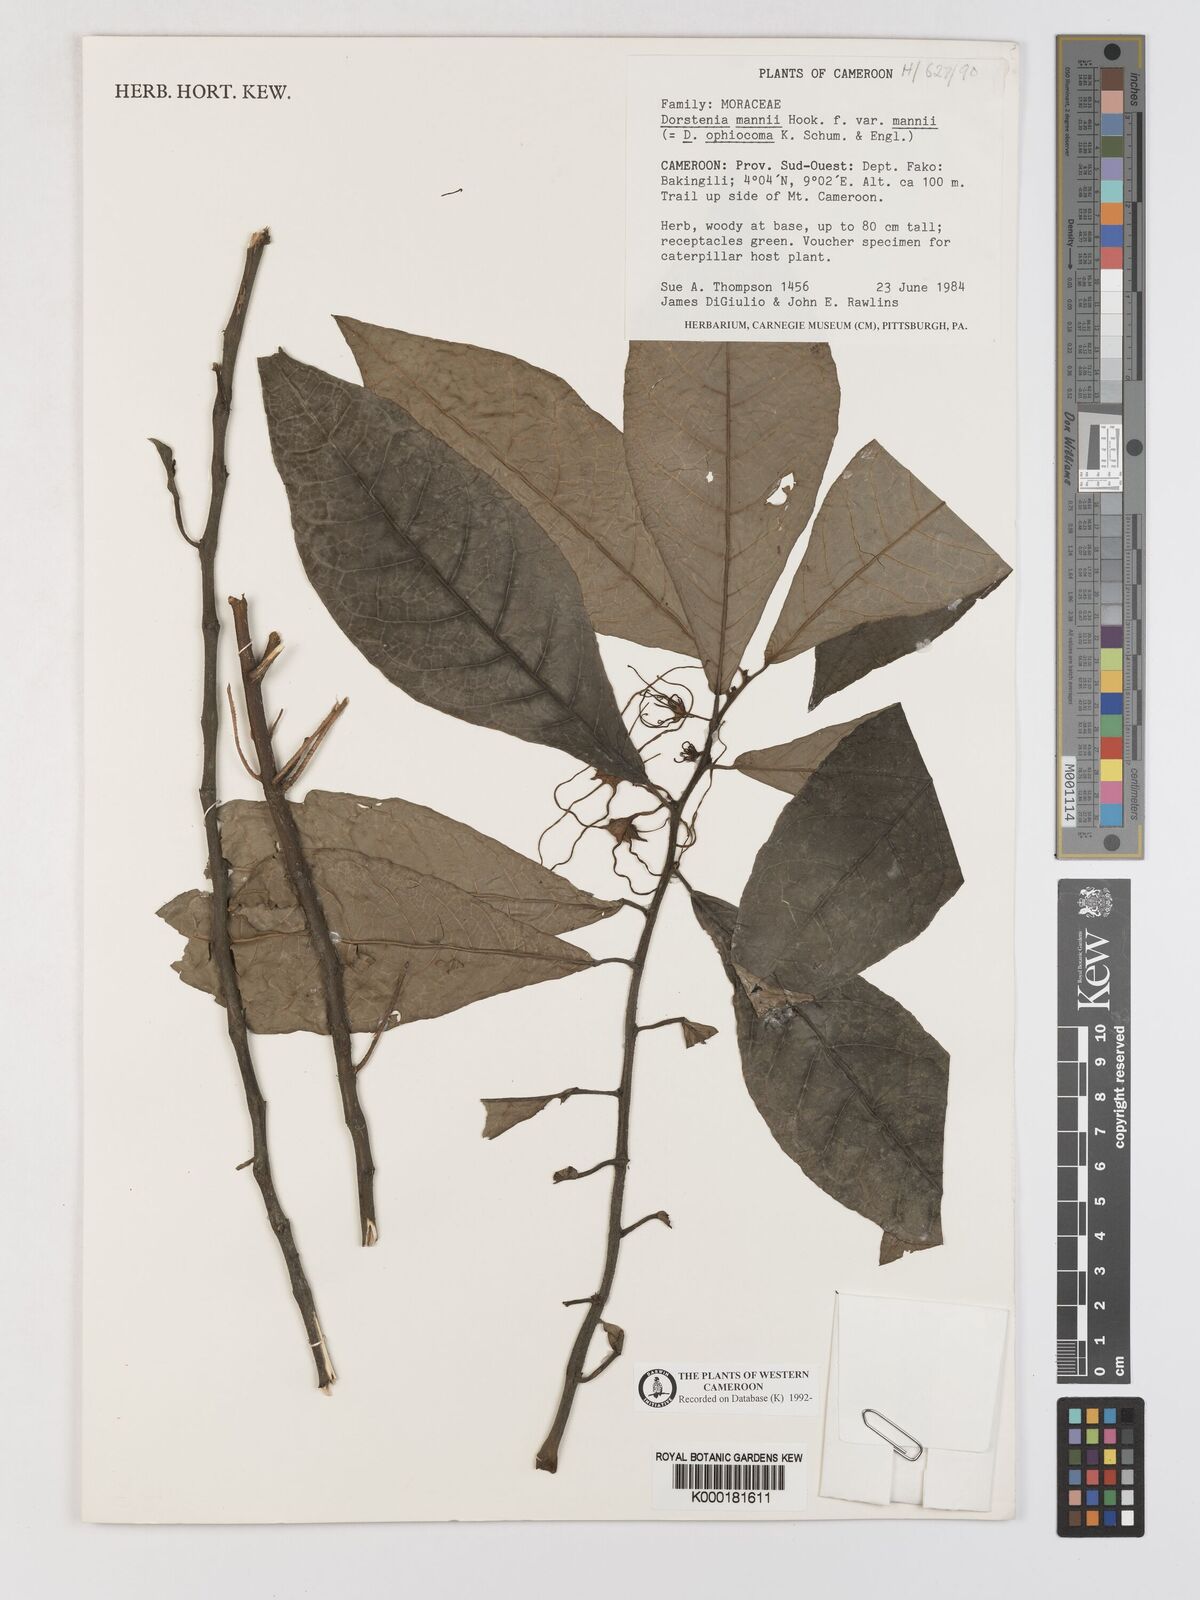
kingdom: Plantae
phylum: Tracheophyta
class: Magnoliopsida
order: Rosales
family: Moraceae
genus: Dorstenia
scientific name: Dorstenia mannii
